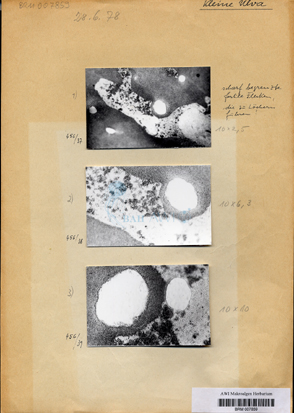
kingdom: Plantae
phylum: Chlorophyta
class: Ulvophyceae
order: Ulvales
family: Ulvaceae
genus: Ulva
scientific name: Ulva tenera
